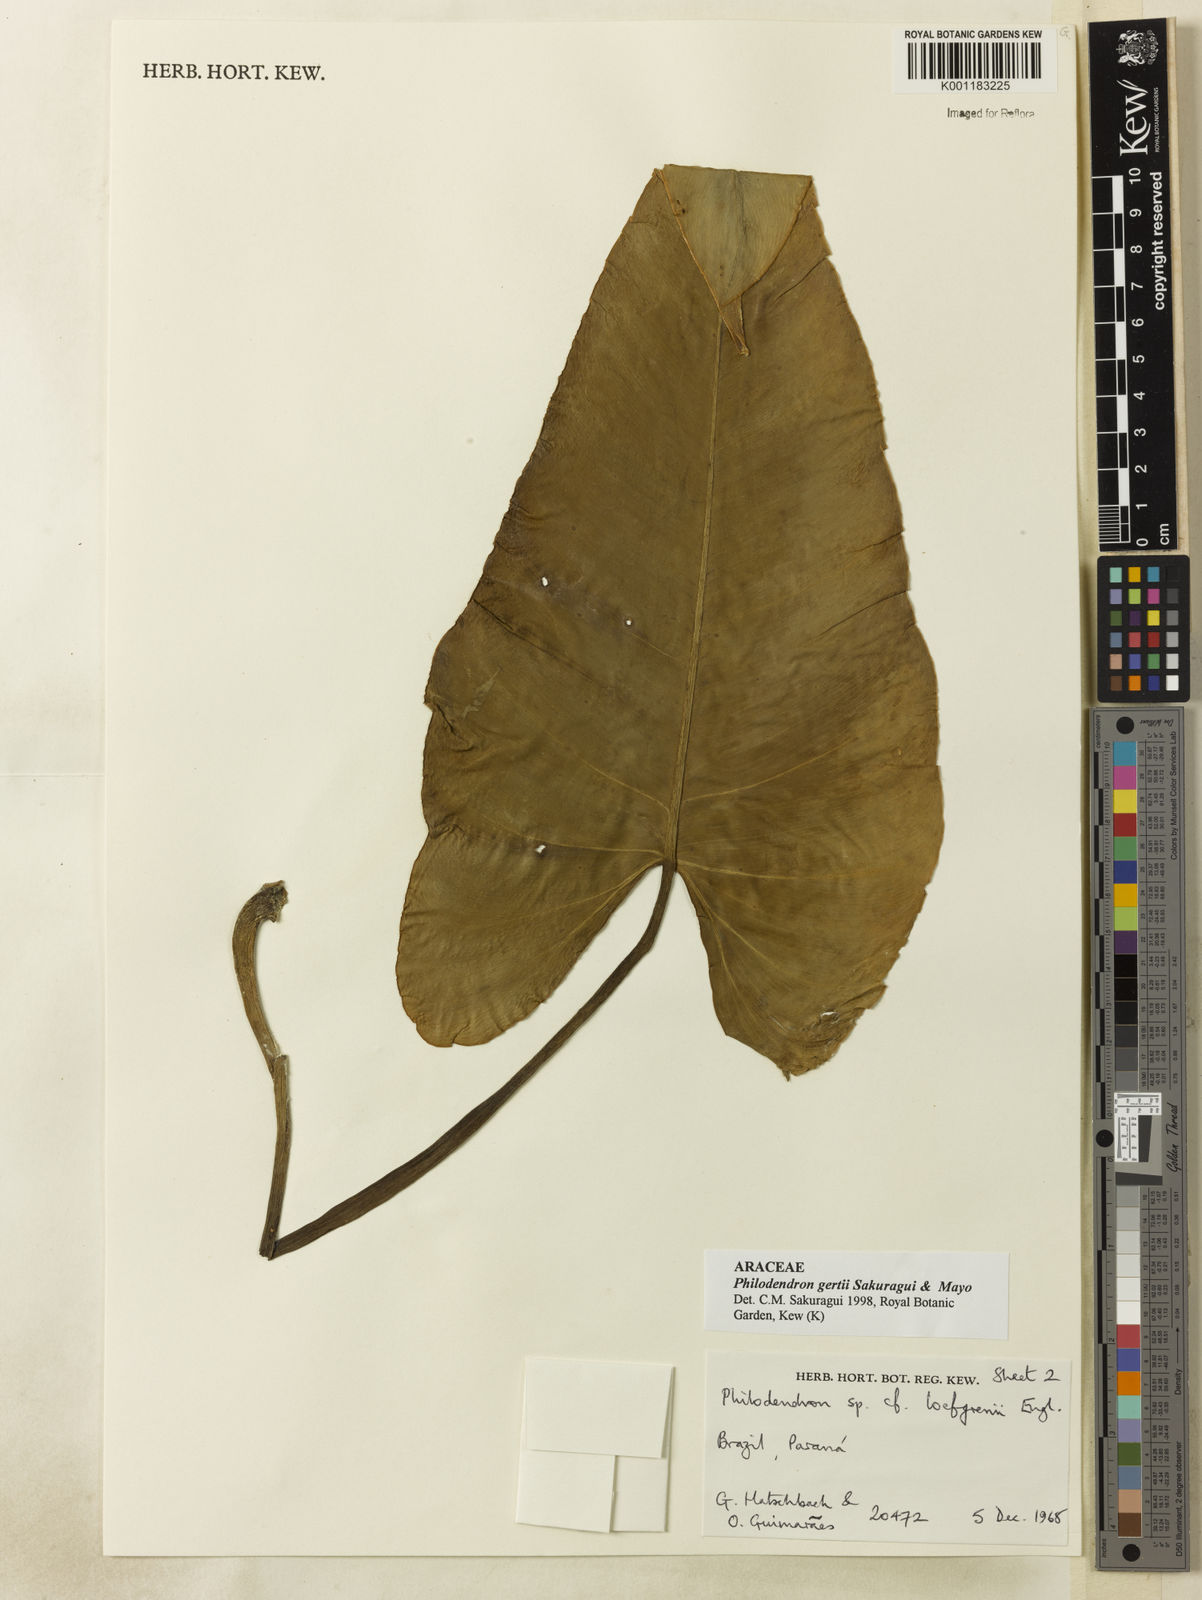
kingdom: Plantae
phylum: Tracheophyta
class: Liliopsida
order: Alismatales
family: Araceae
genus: Philodendron
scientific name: Philodendron
